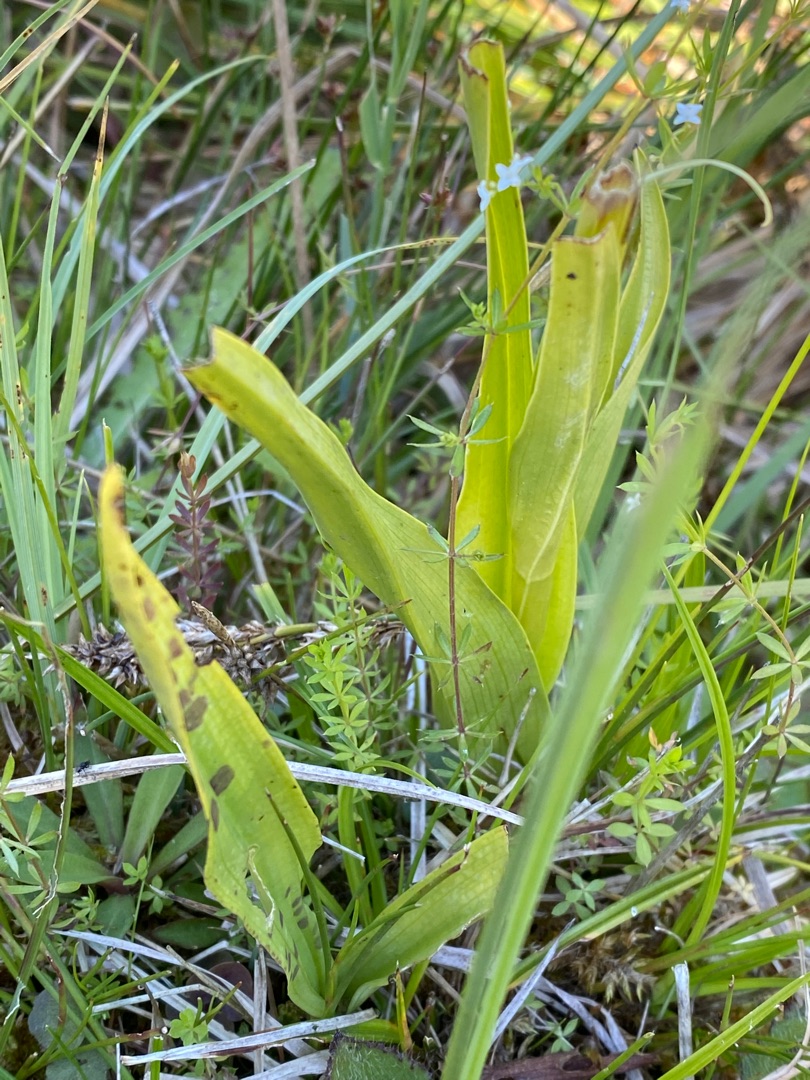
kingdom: Plantae
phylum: Tracheophyta
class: Liliopsida
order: Asparagales
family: Orchidaceae
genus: Dactylorhiza
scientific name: Dactylorhiza incarnata
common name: Kødfarvet gøgeurt
